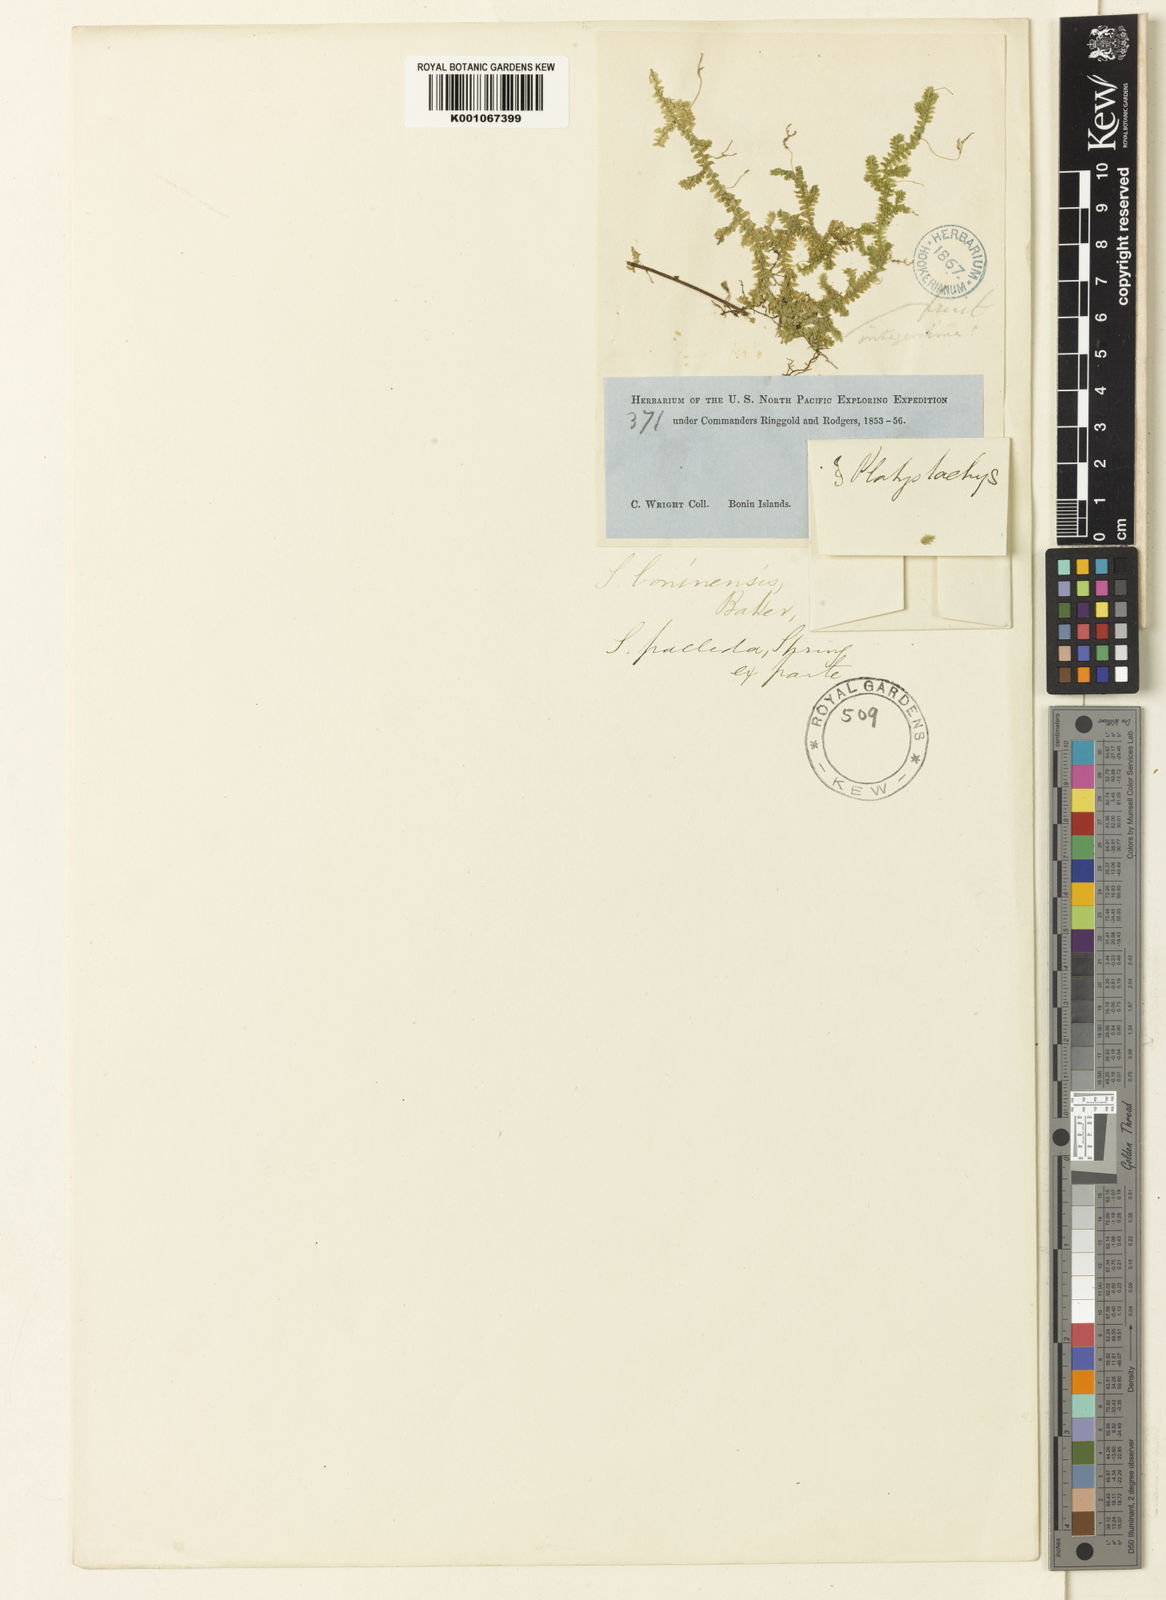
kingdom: Plantae
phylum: Tracheophyta
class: Lycopodiopsida
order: Selaginellales
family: Selaginellaceae
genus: Selaginella
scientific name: Selaginella boninensis
